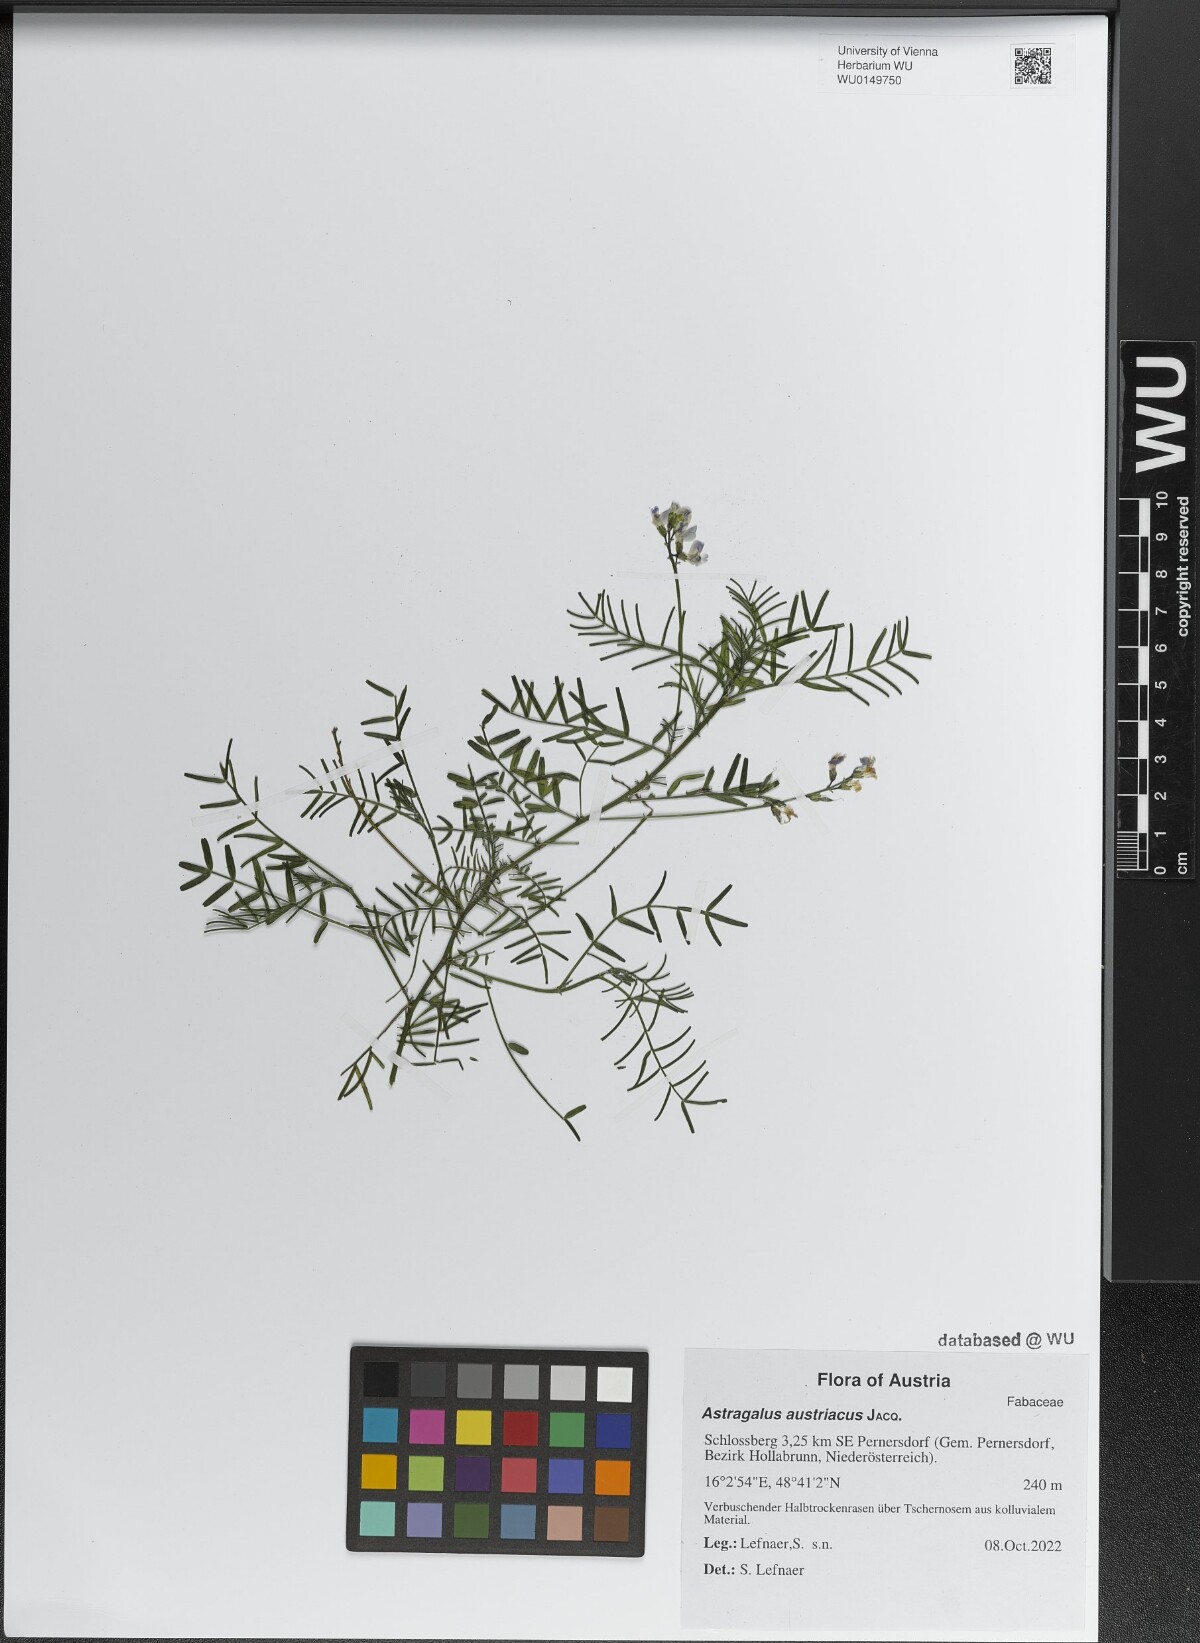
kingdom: Plantae
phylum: Tracheophyta
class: Magnoliopsida
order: Fabales
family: Fabaceae
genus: Astragalus
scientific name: Astragalus austriacus
